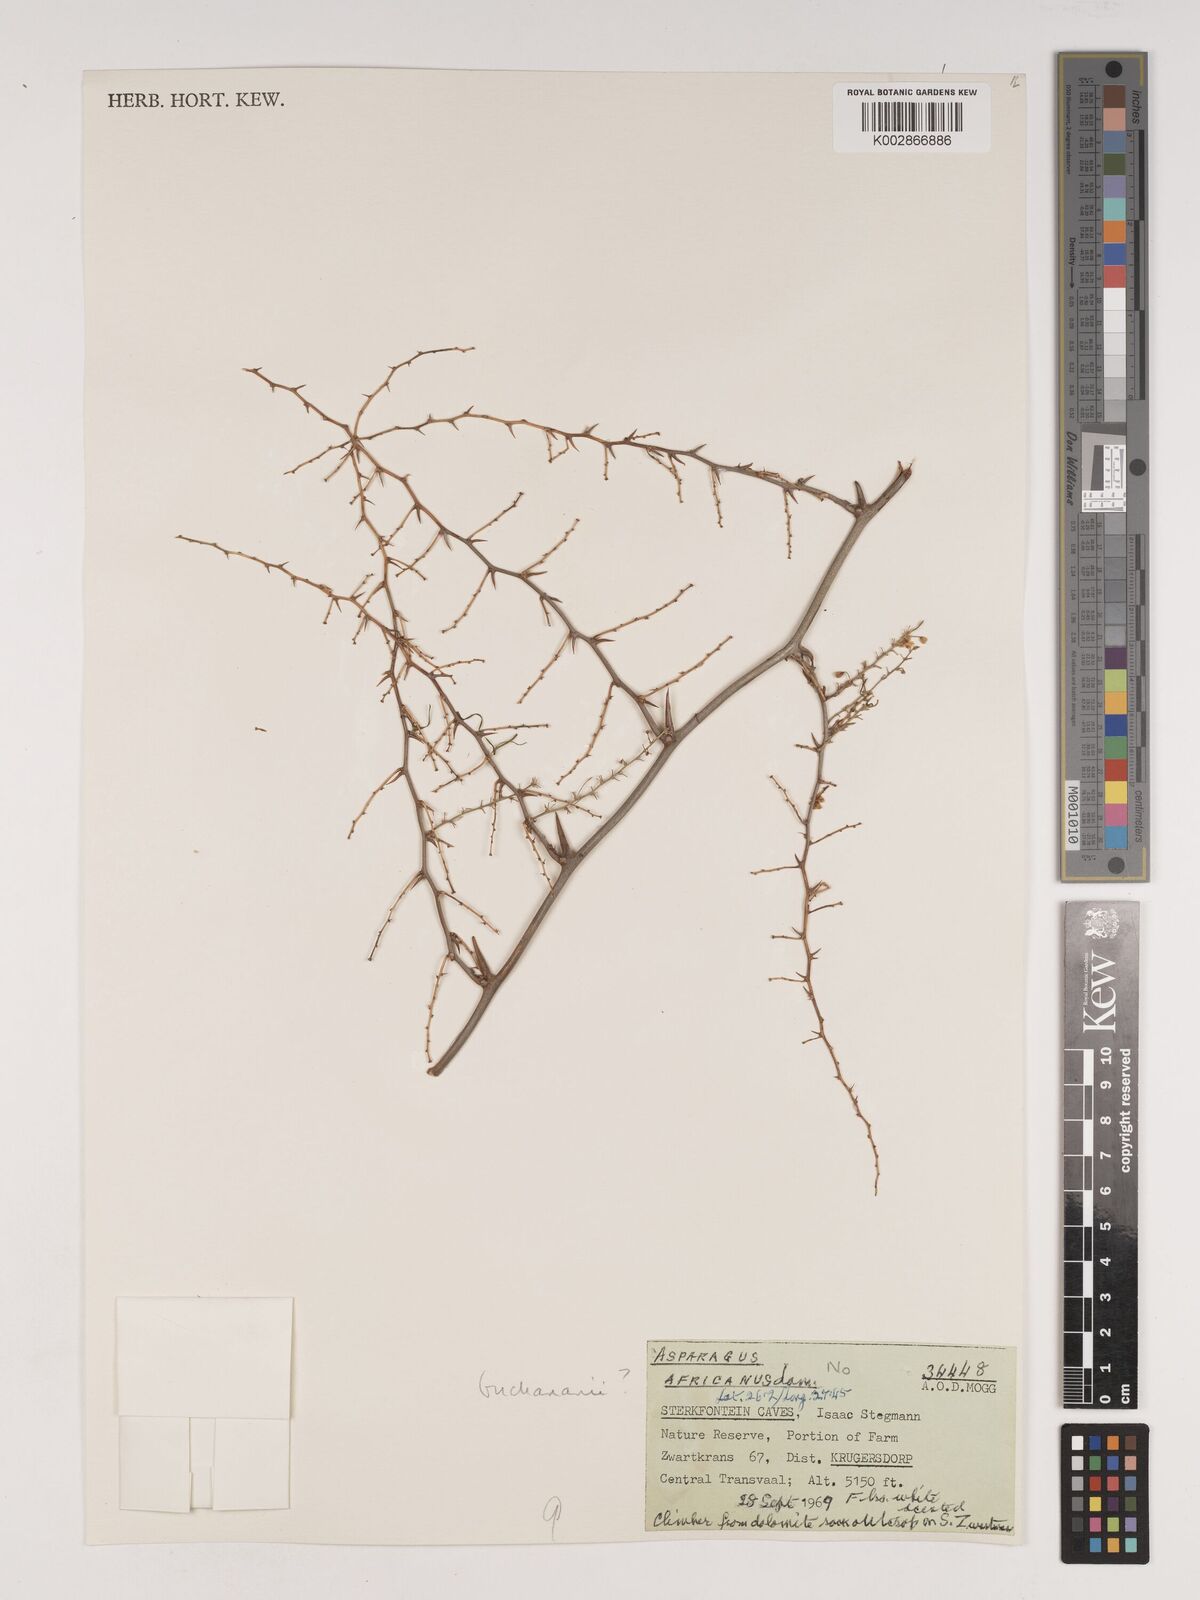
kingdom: Plantae
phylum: Tracheophyta
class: Liliopsida
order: Asparagales
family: Asparagaceae
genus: Asparagus
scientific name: Asparagus buchananii
